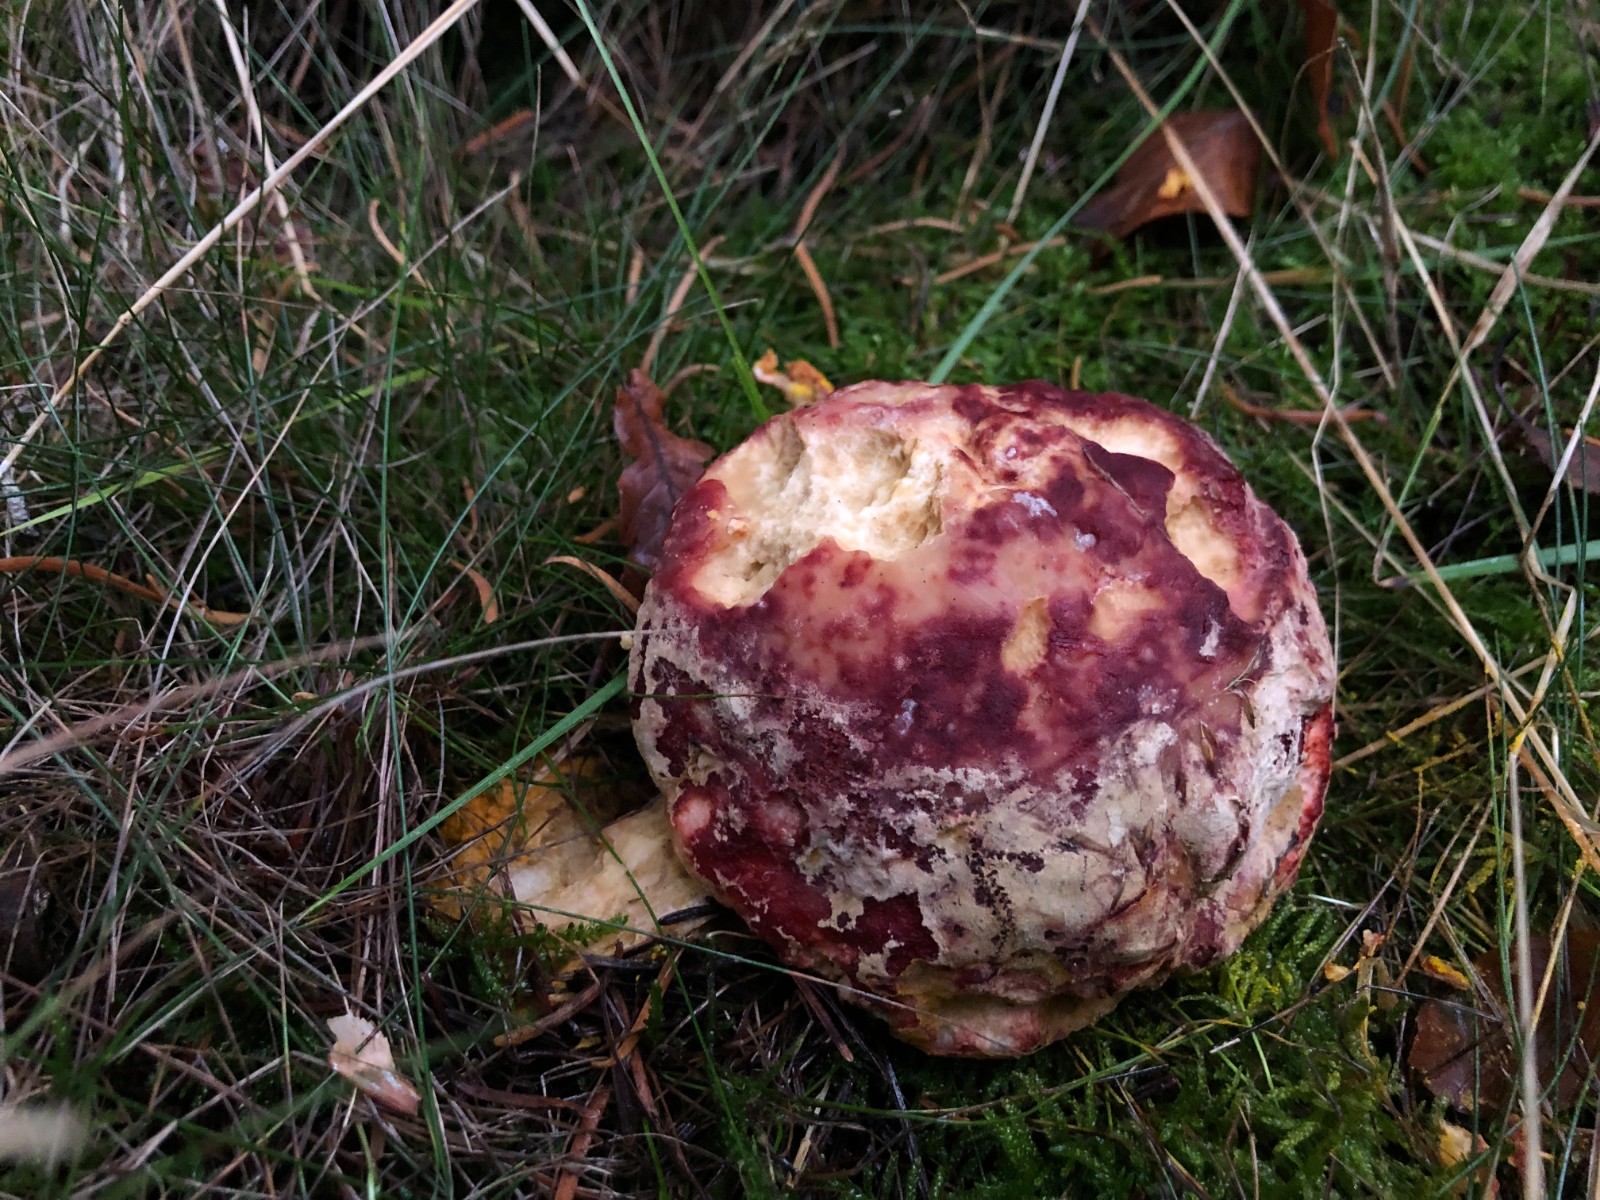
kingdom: Fungi
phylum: Ascomycota
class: Sordariomycetes
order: Hypocreales
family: Hypocreaceae
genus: Hypomyces
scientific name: Hypomyces microspermus
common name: dværgrørhat-snylteskorpe
